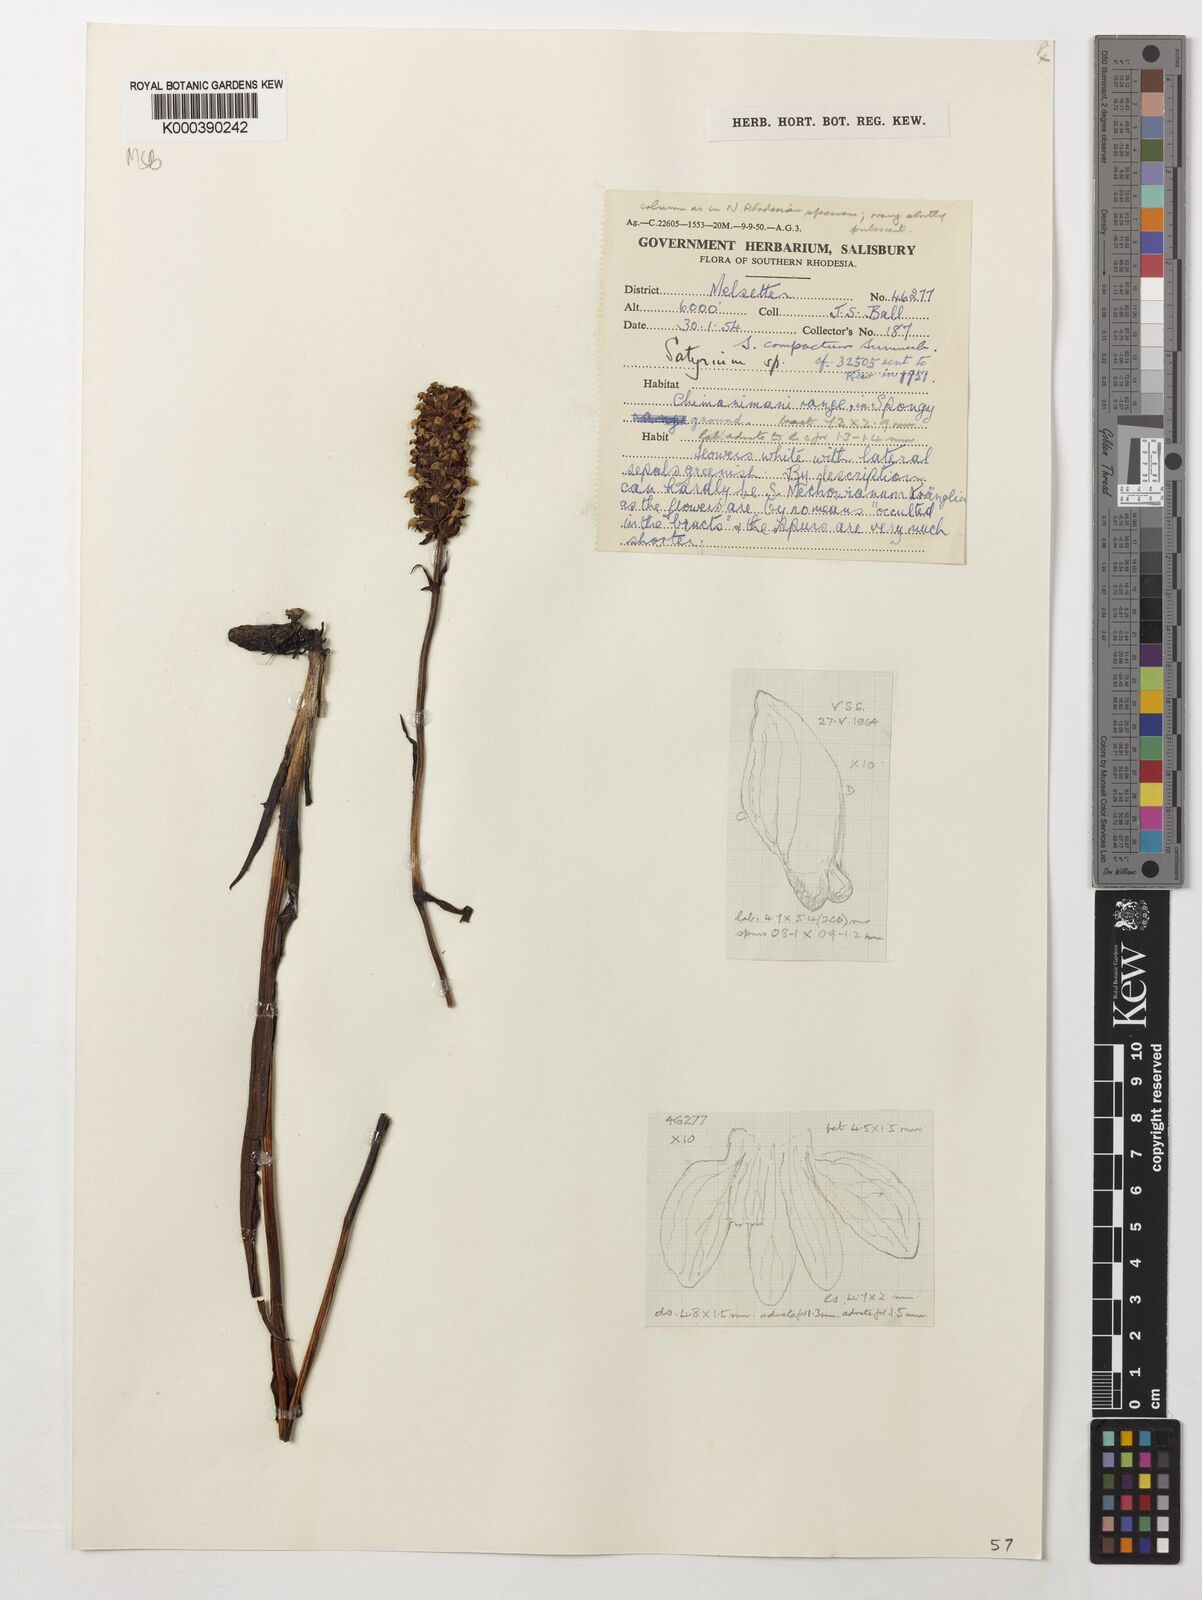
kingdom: Plantae
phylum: Tracheophyta
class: Liliopsida
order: Asparagales
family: Orchidaceae
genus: Satyrium
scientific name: Satyrium compactum
